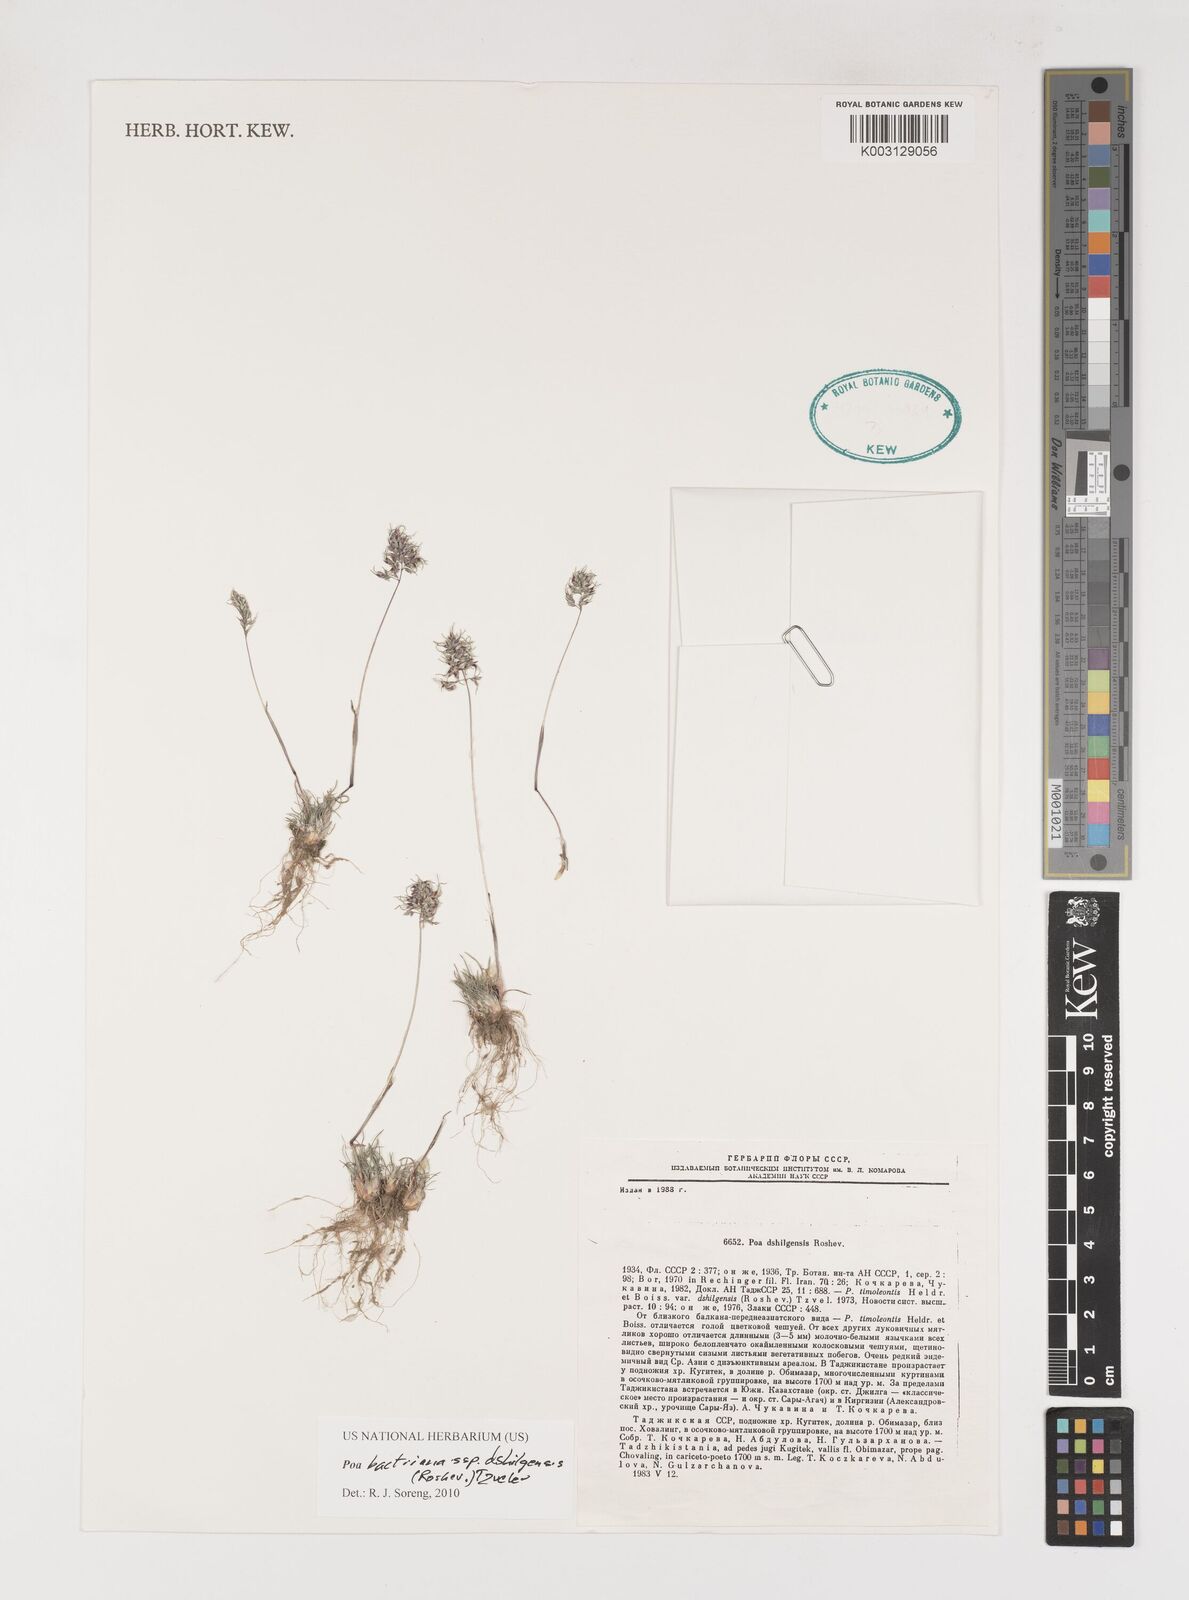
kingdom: Plantae
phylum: Tracheophyta
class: Liliopsida
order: Poales
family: Poaceae
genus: Poa
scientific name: Poa timoleontis
